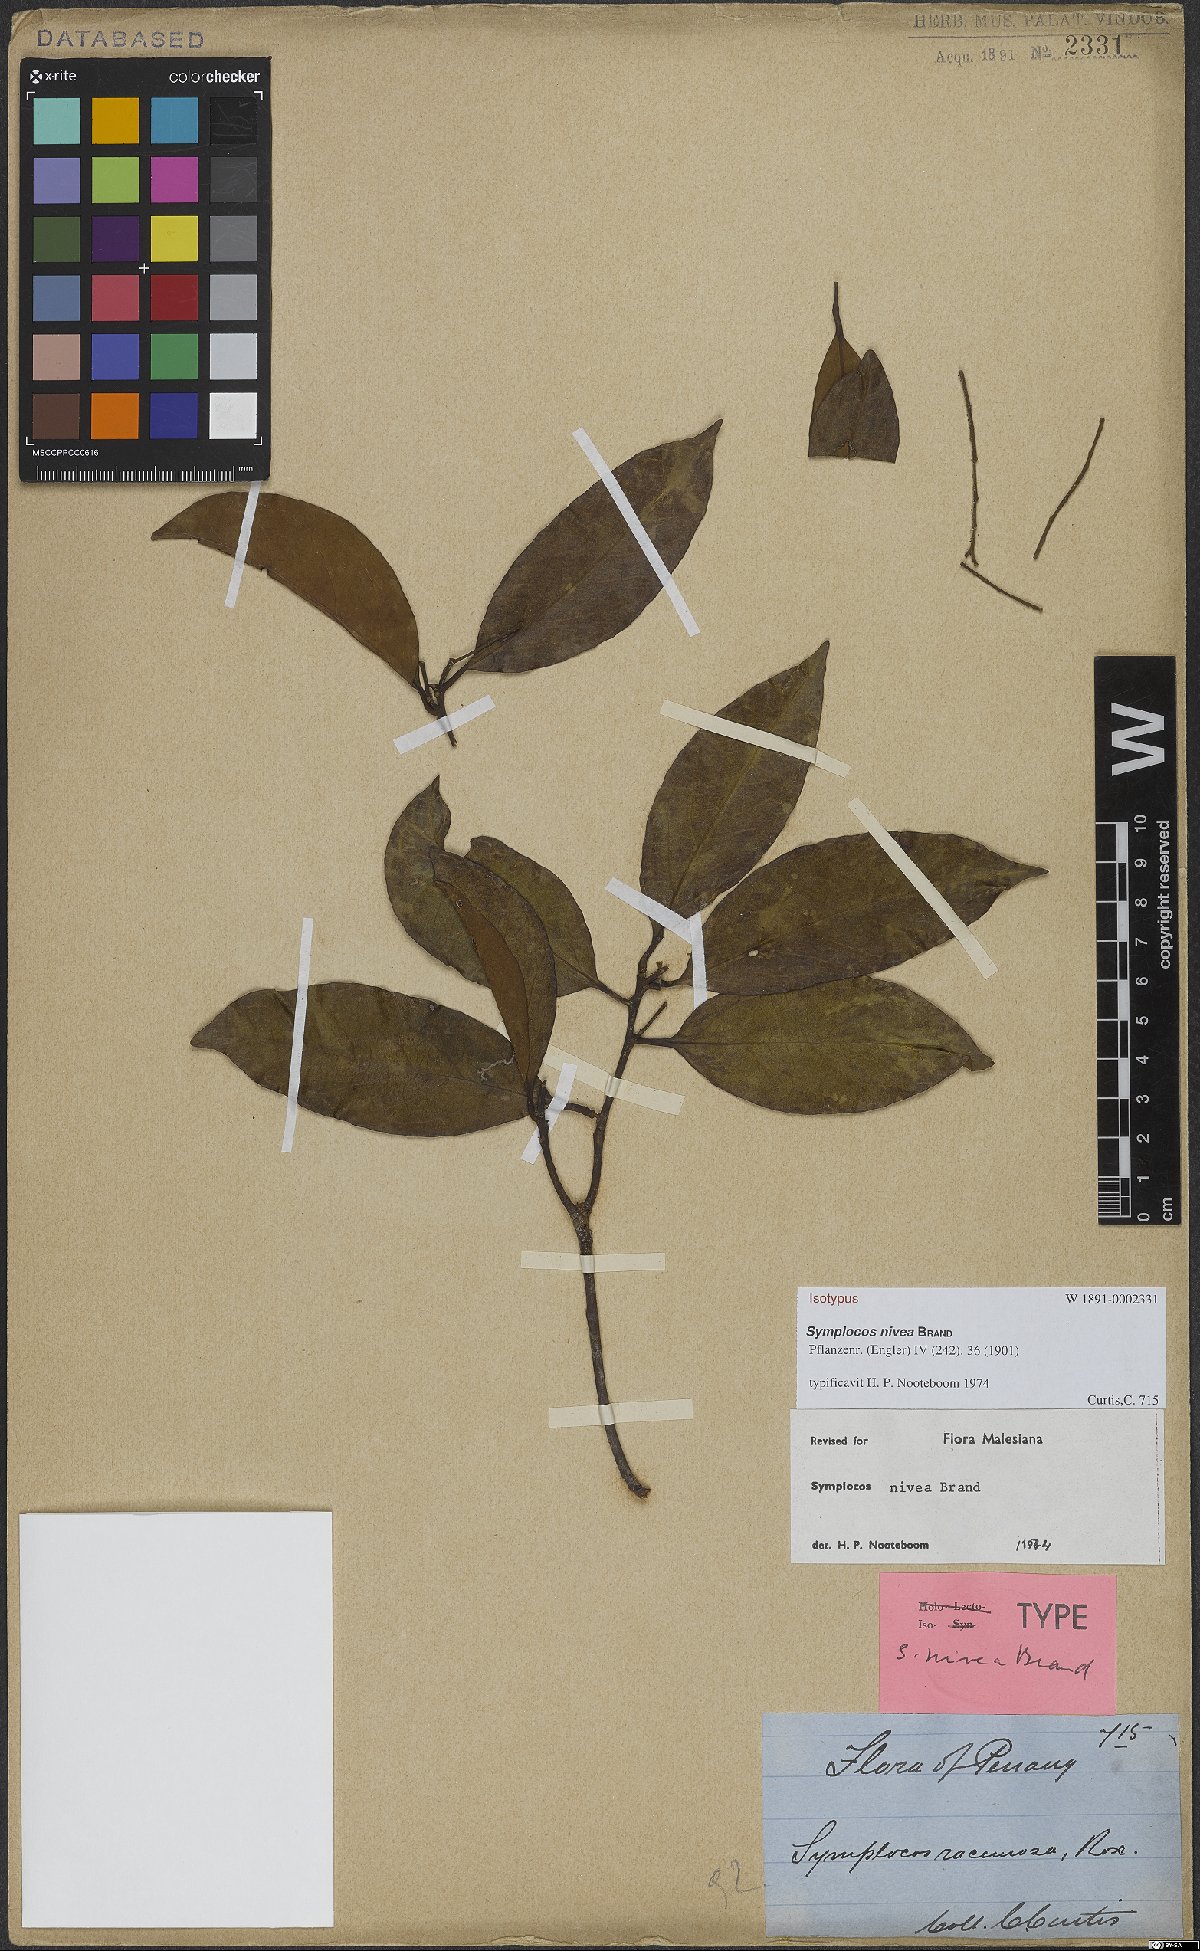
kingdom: Plantae
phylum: Tracheophyta
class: Magnoliopsida
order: Ericales
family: Symplocaceae
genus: Symplocos
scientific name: Symplocos nivea
